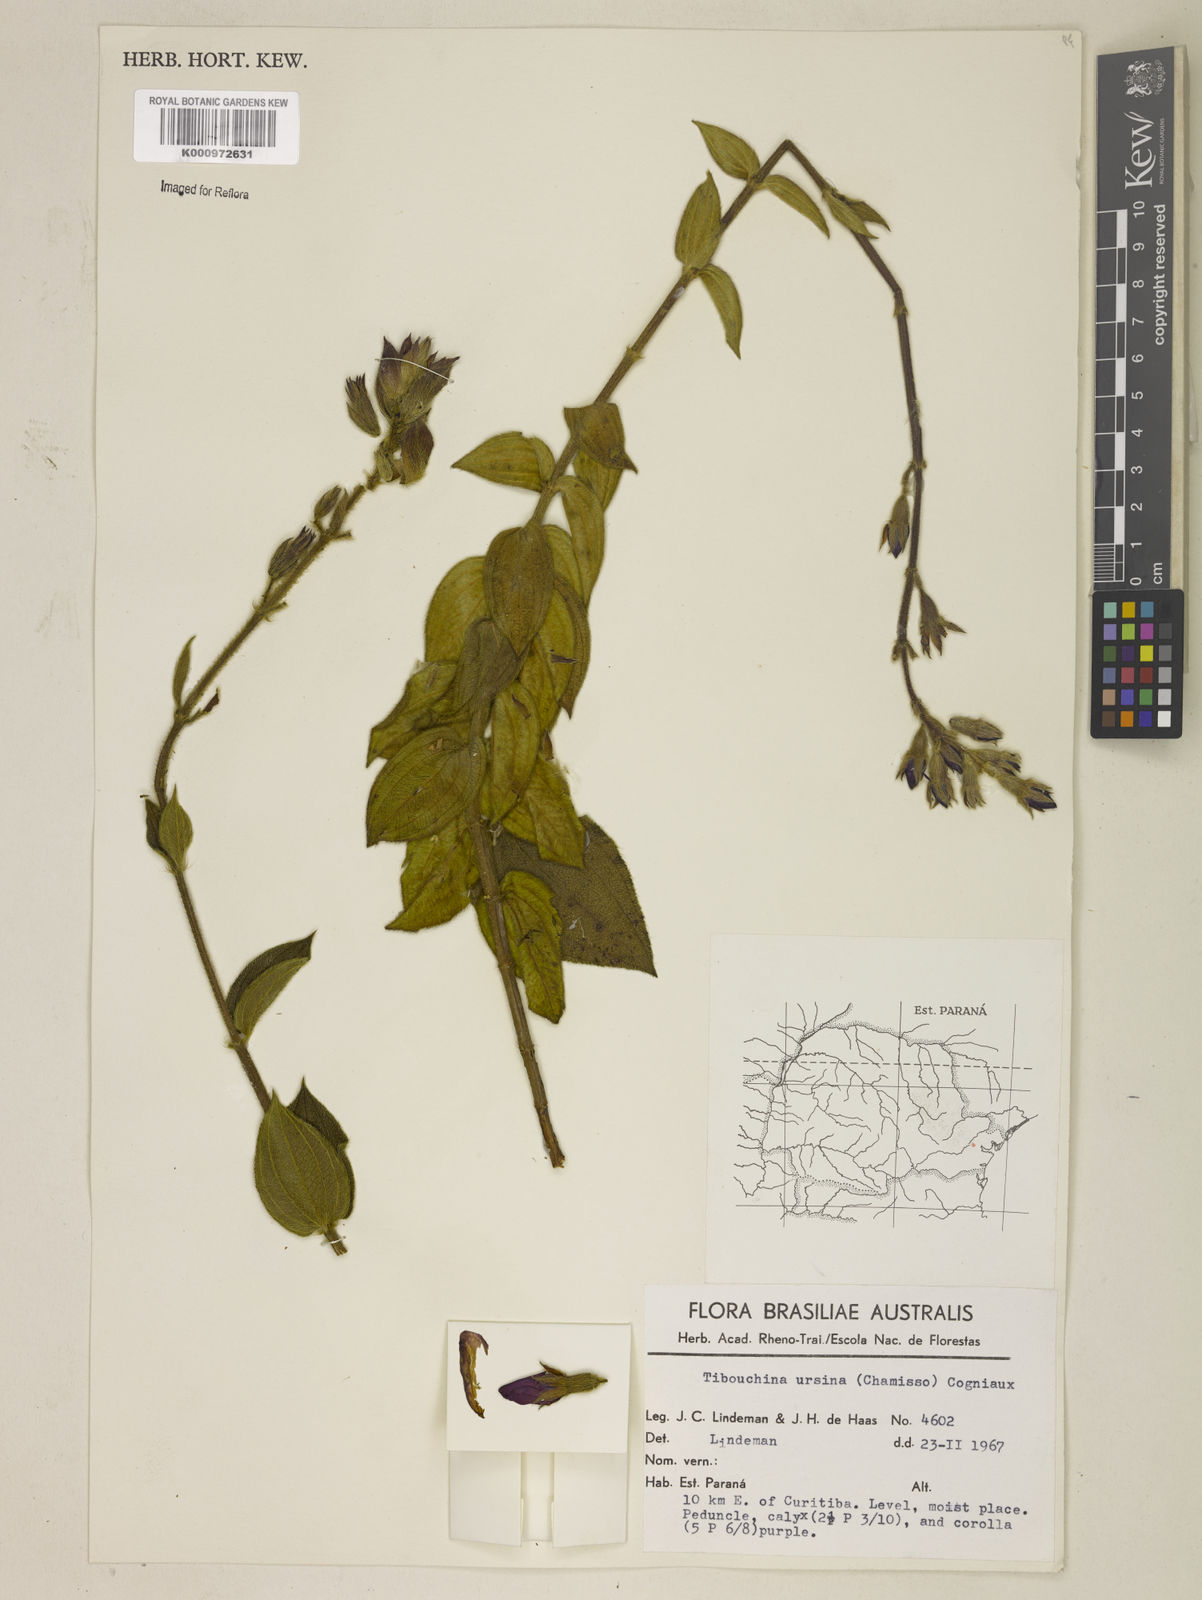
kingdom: Plantae
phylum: Tracheophyta
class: Magnoliopsida
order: Myrtales
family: Melastomataceae
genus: Pleroma
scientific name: Pleroma ursinum
